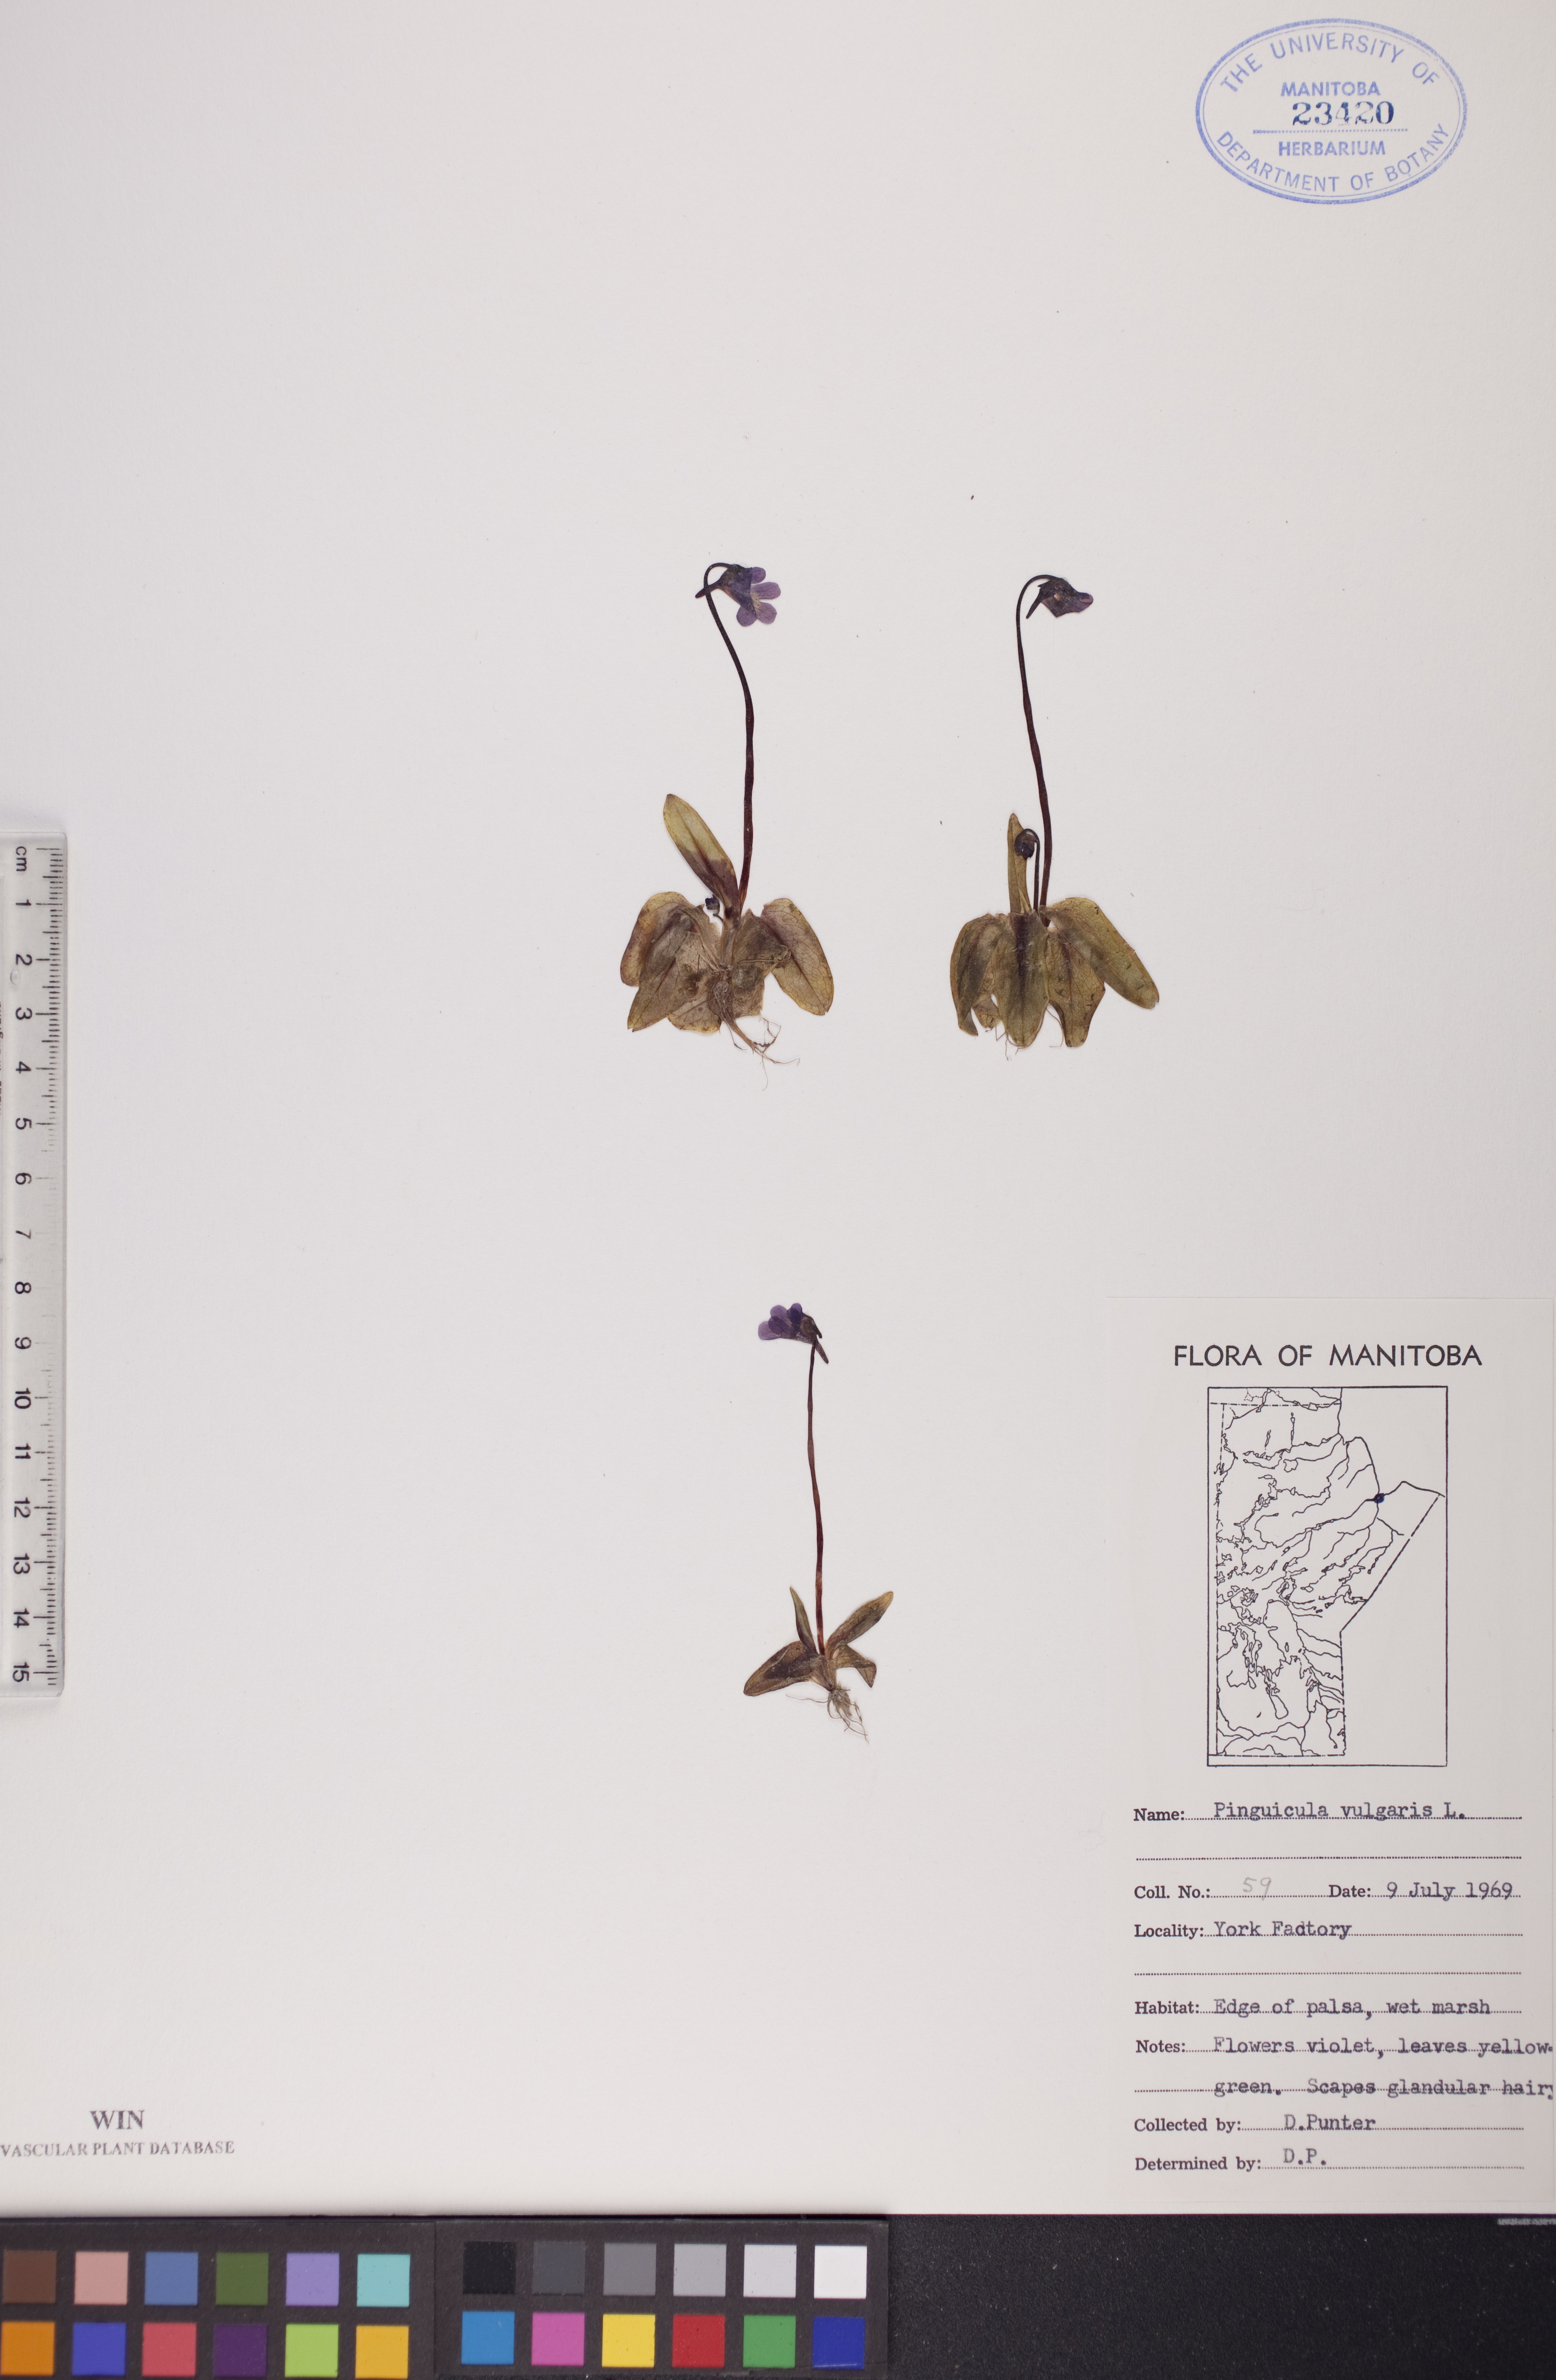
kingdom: Plantae
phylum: Tracheophyta
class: Magnoliopsida
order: Lamiales
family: Lentibulariaceae
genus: Pinguicula
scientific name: Pinguicula vulgaris
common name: Common butterwort
